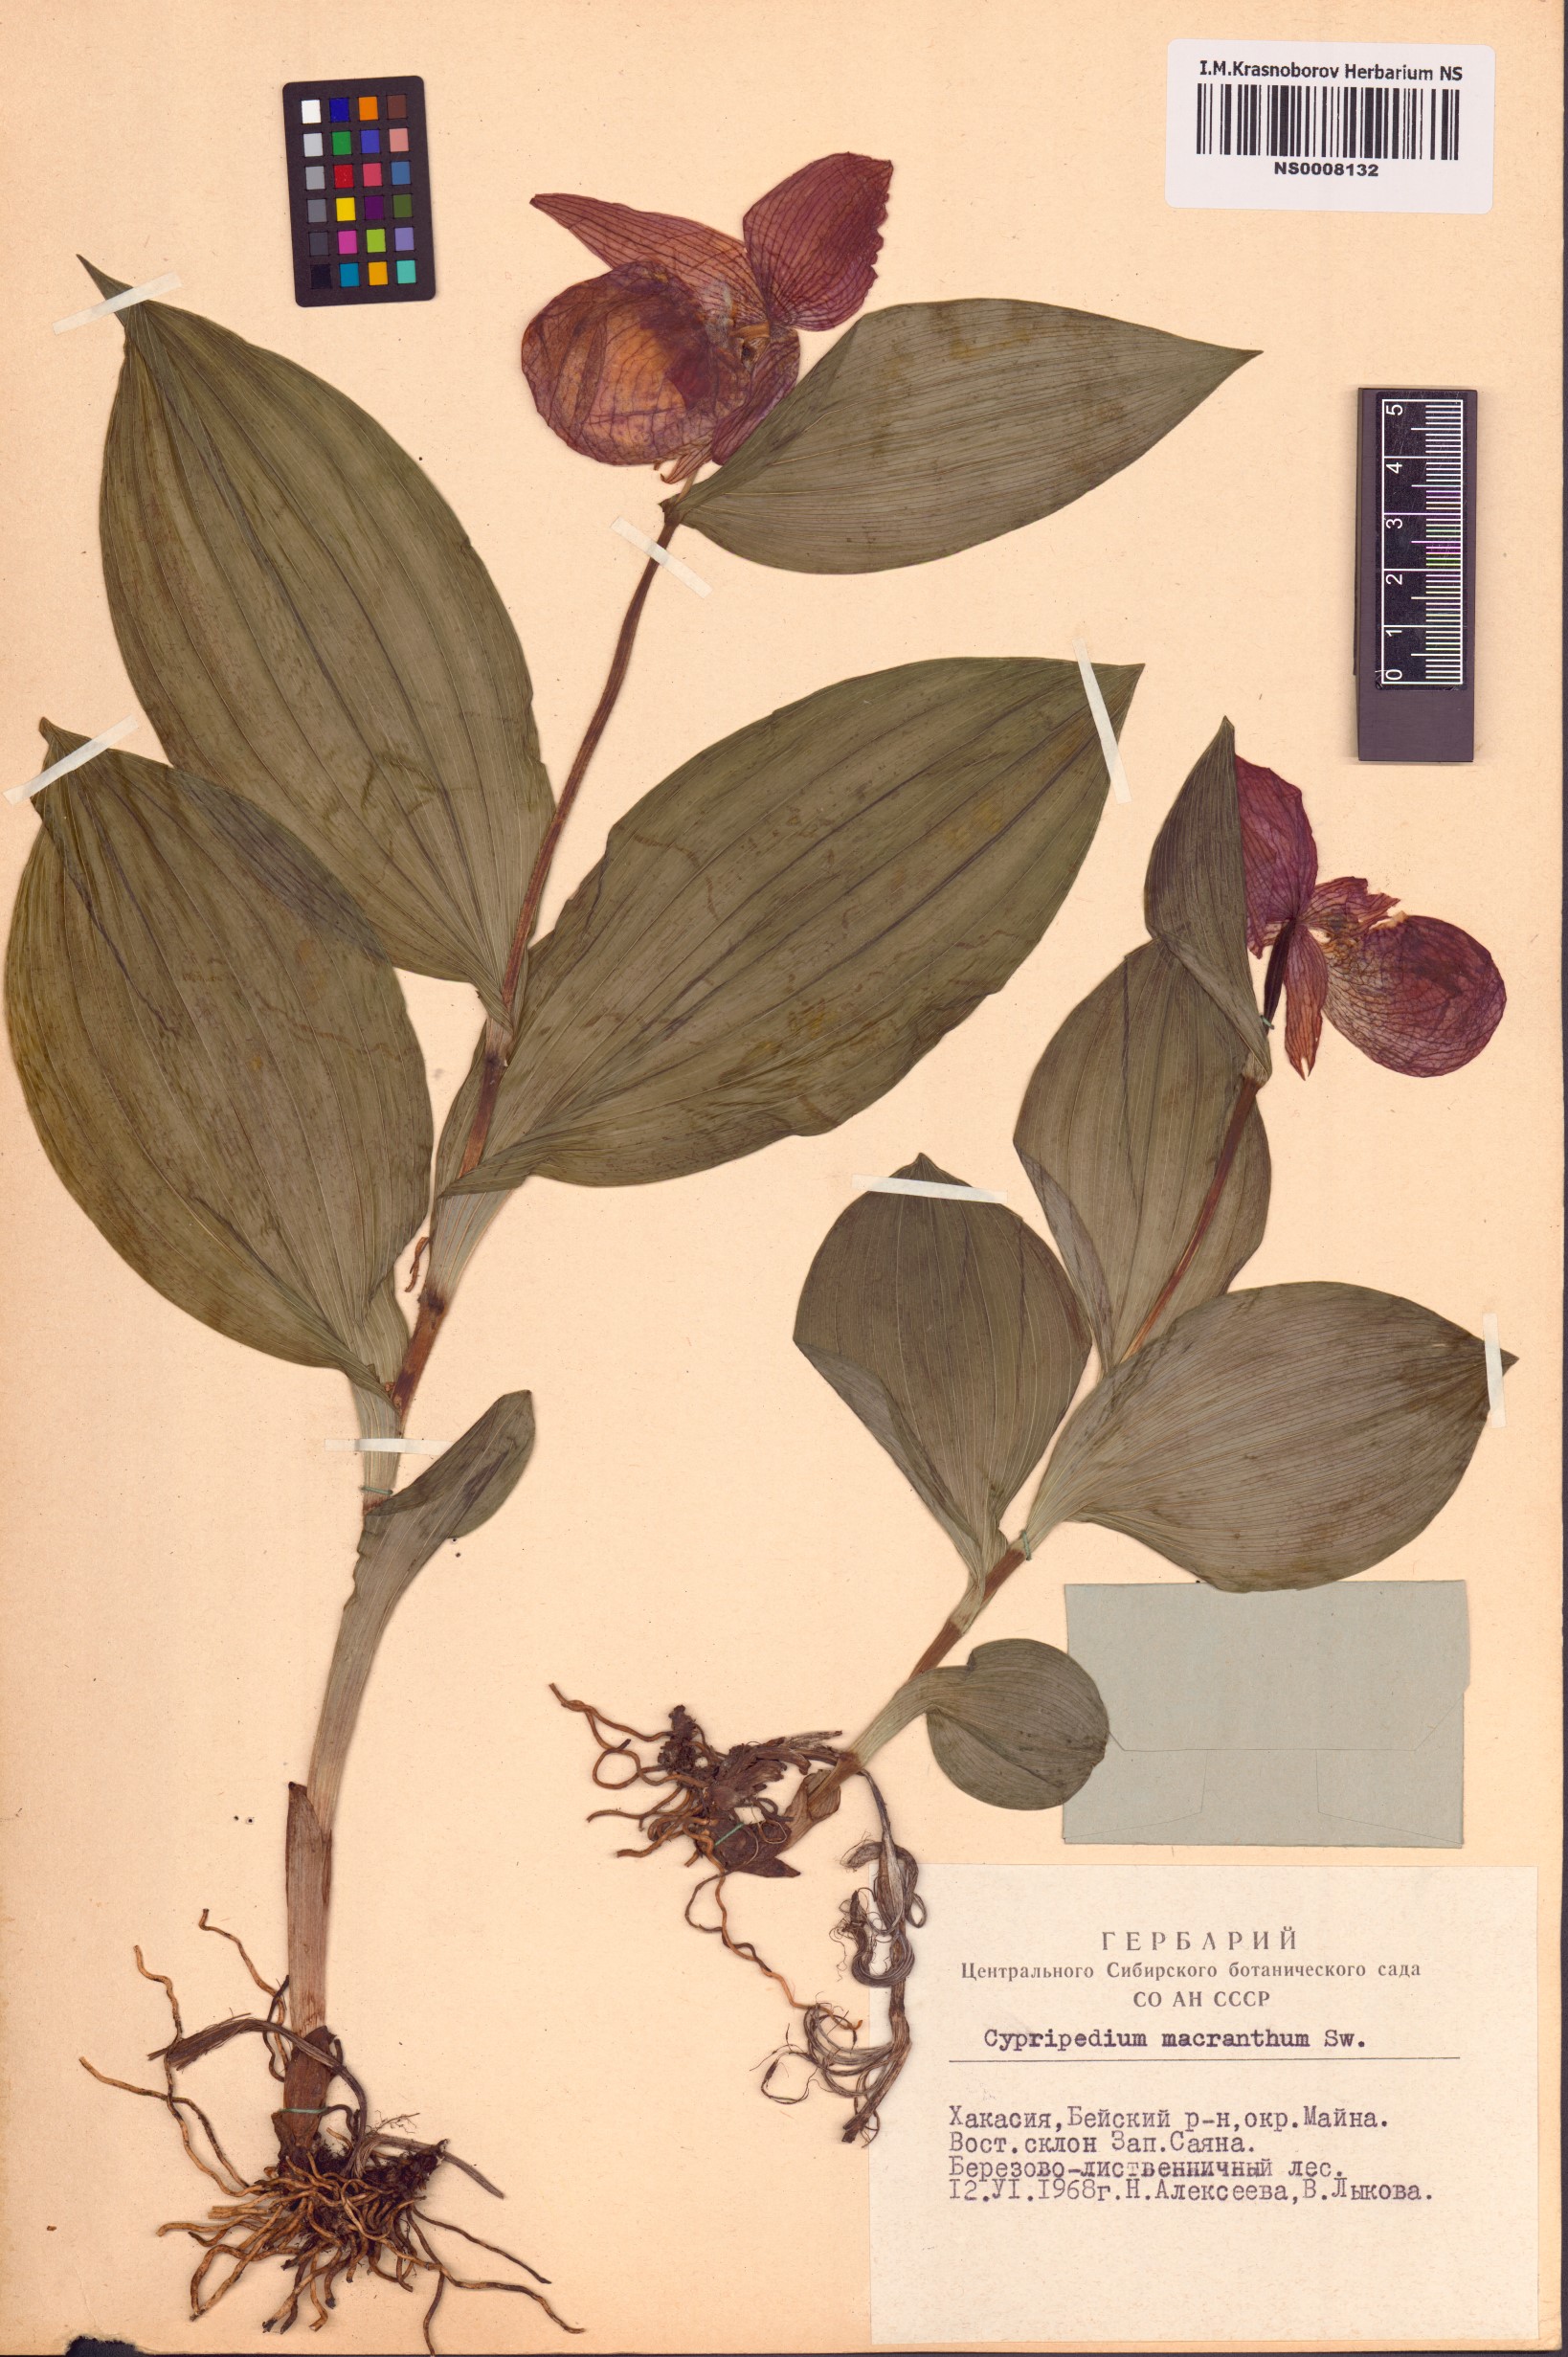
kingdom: Plantae
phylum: Tracheophyta
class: Liliopsida
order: Asparagales
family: Orchidaceae
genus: Cypripedium
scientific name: Cypripedium macranthos
